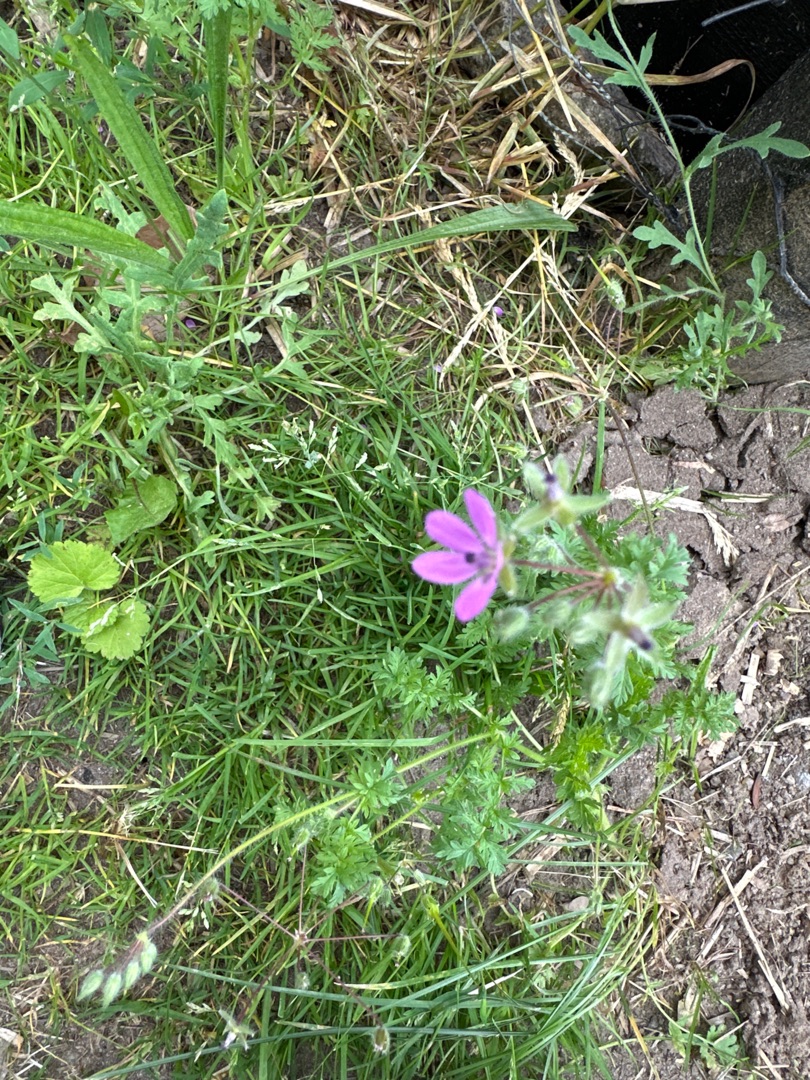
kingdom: Plantae
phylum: Tracheophyta
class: Magnoliopsida
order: Geraniales
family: Geraniaceae
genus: Erodium
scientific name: Erodium cicutarium
